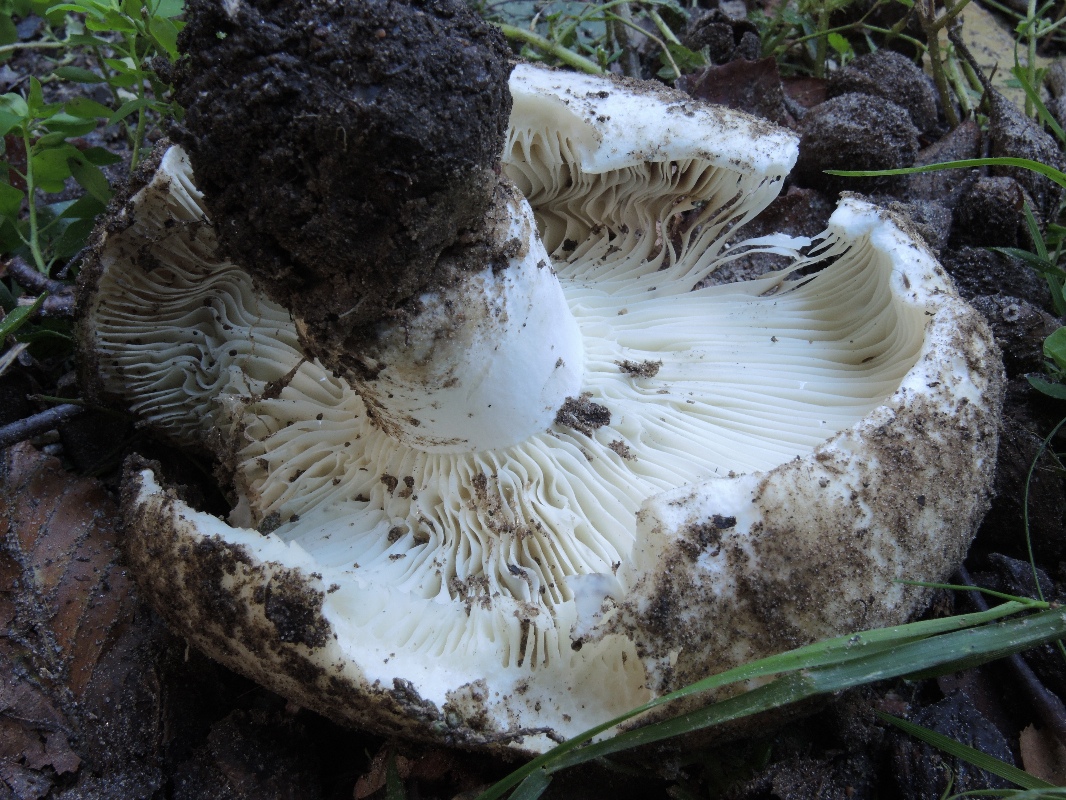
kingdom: Fungi
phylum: Basidiomycota
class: Agaricomycetes
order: Russulales
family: Russulaceae
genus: Russula
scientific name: Russula delica
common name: almindelig tragt-skørhat
